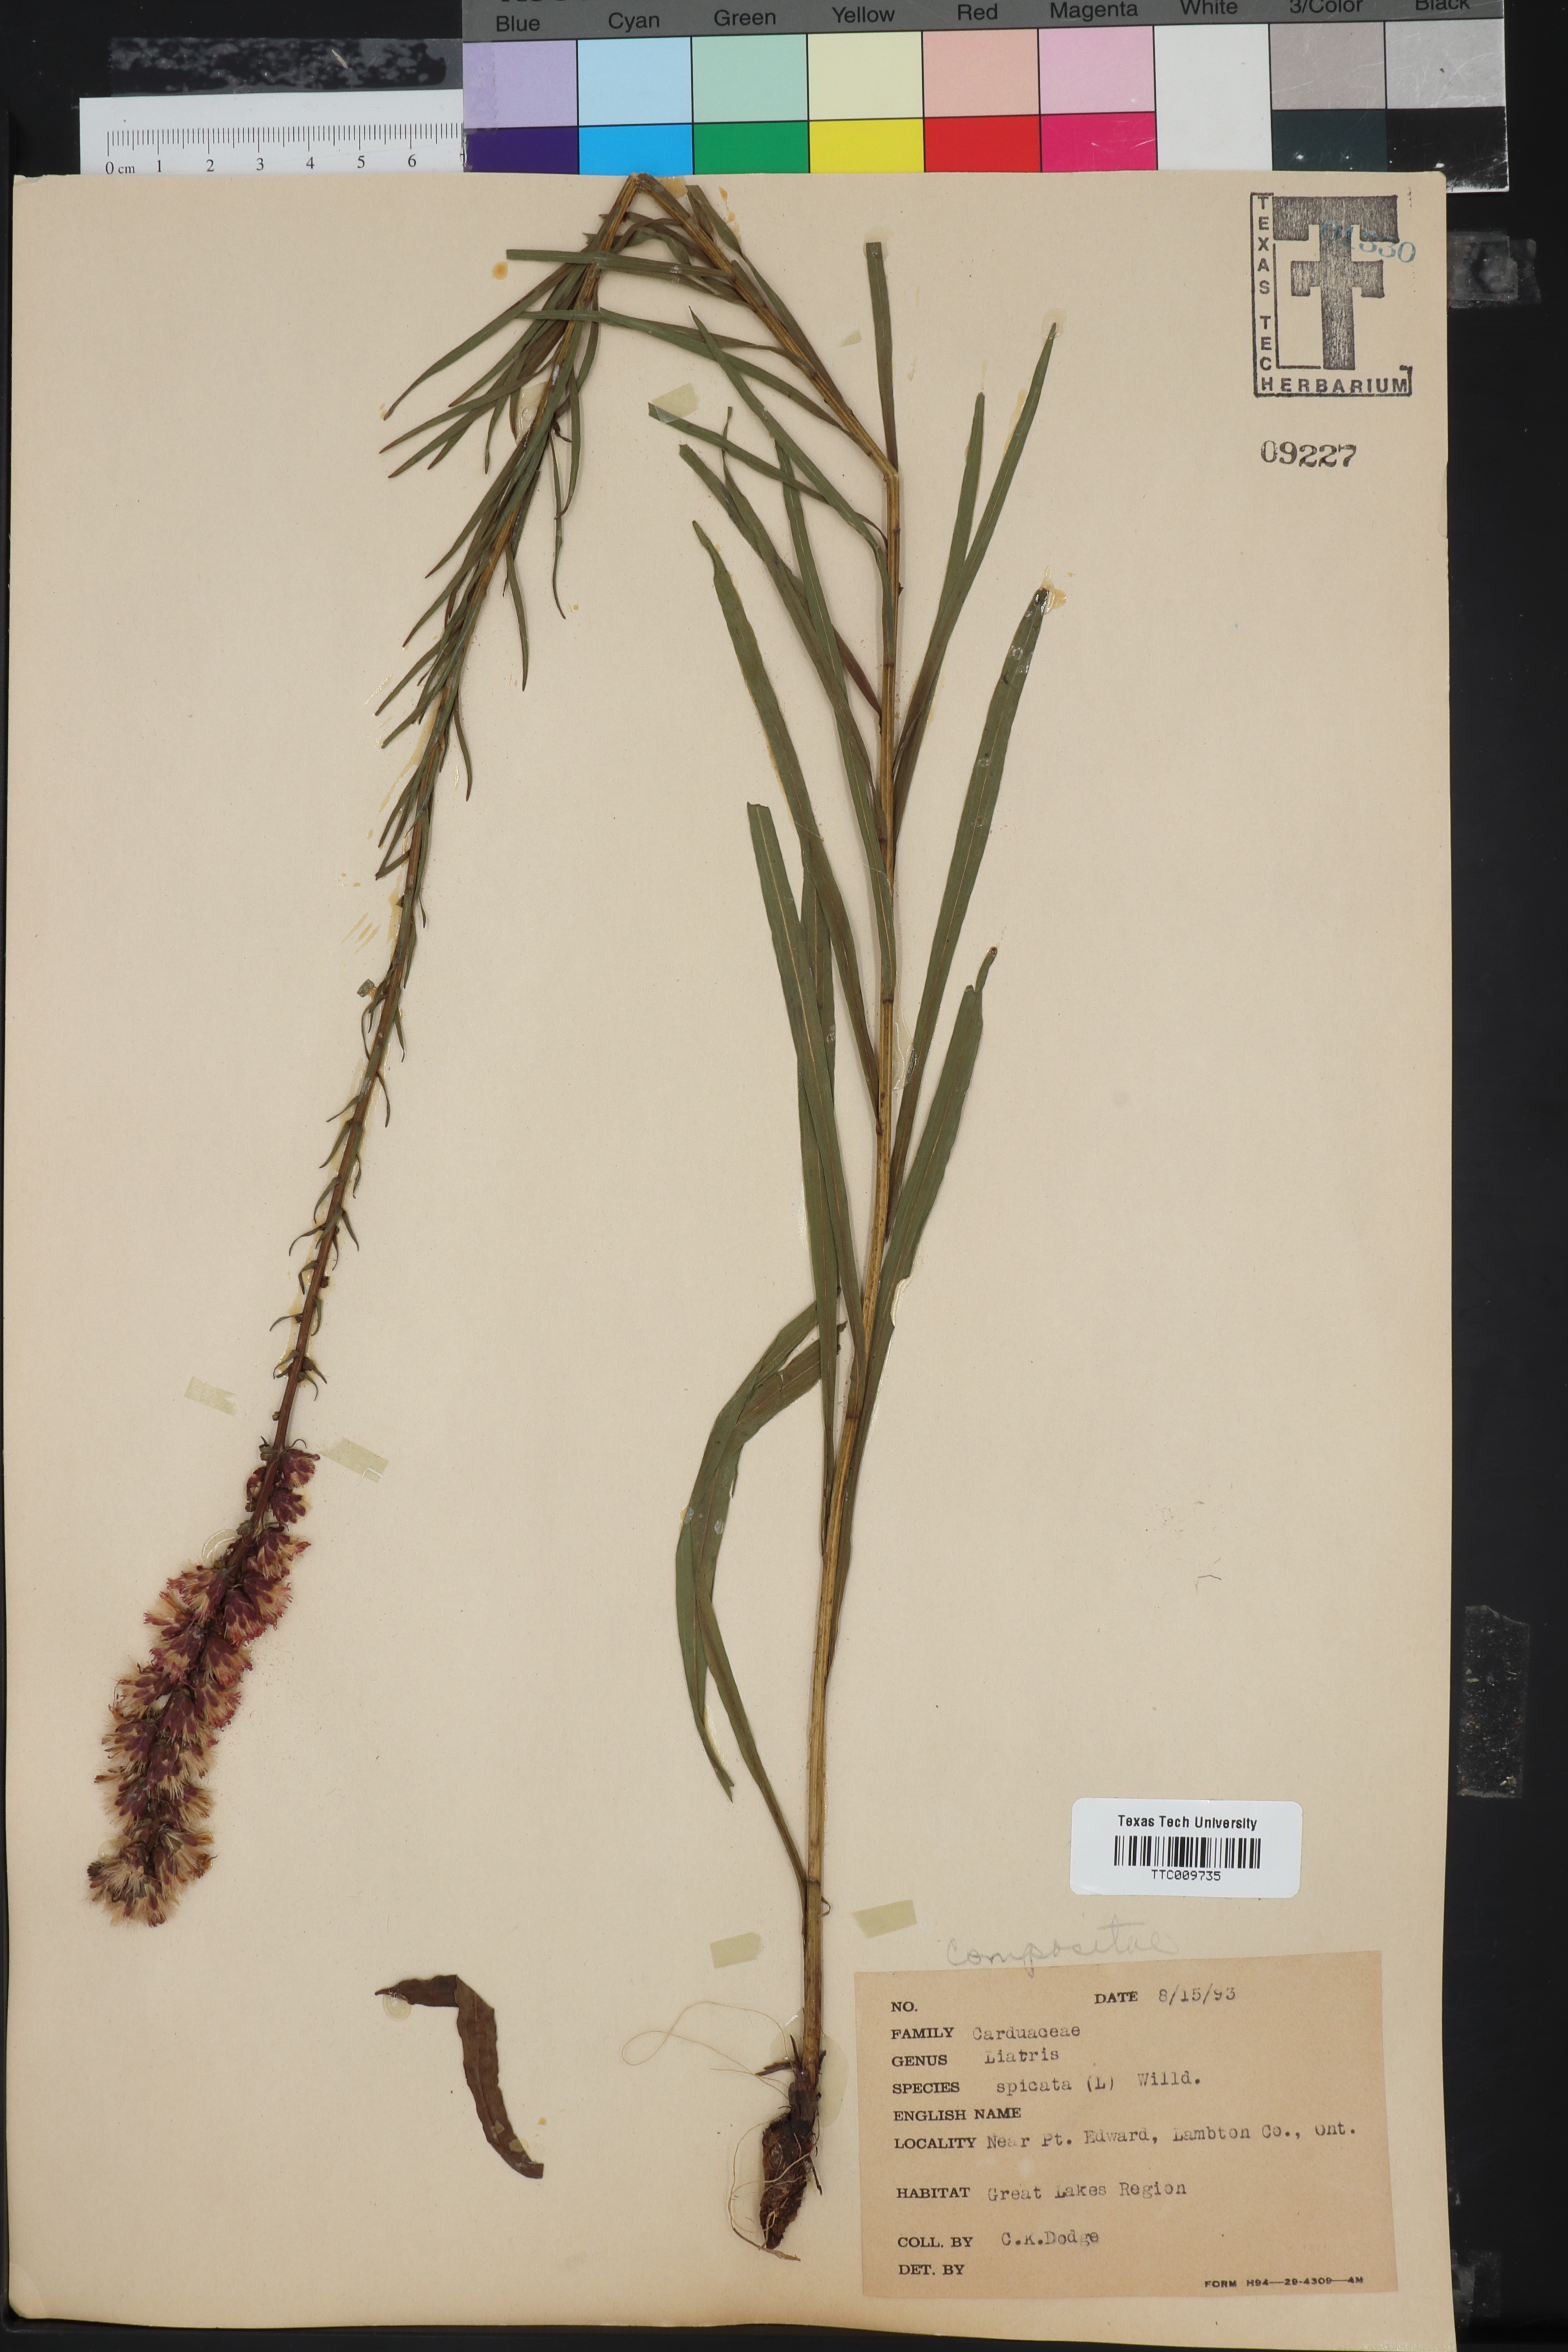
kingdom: Plantae
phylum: Tracheophyta
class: Magnoliopsida
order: Asterales
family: Asteraceae
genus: Liatris
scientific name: Liatris spicata
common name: Florist gayfeather
